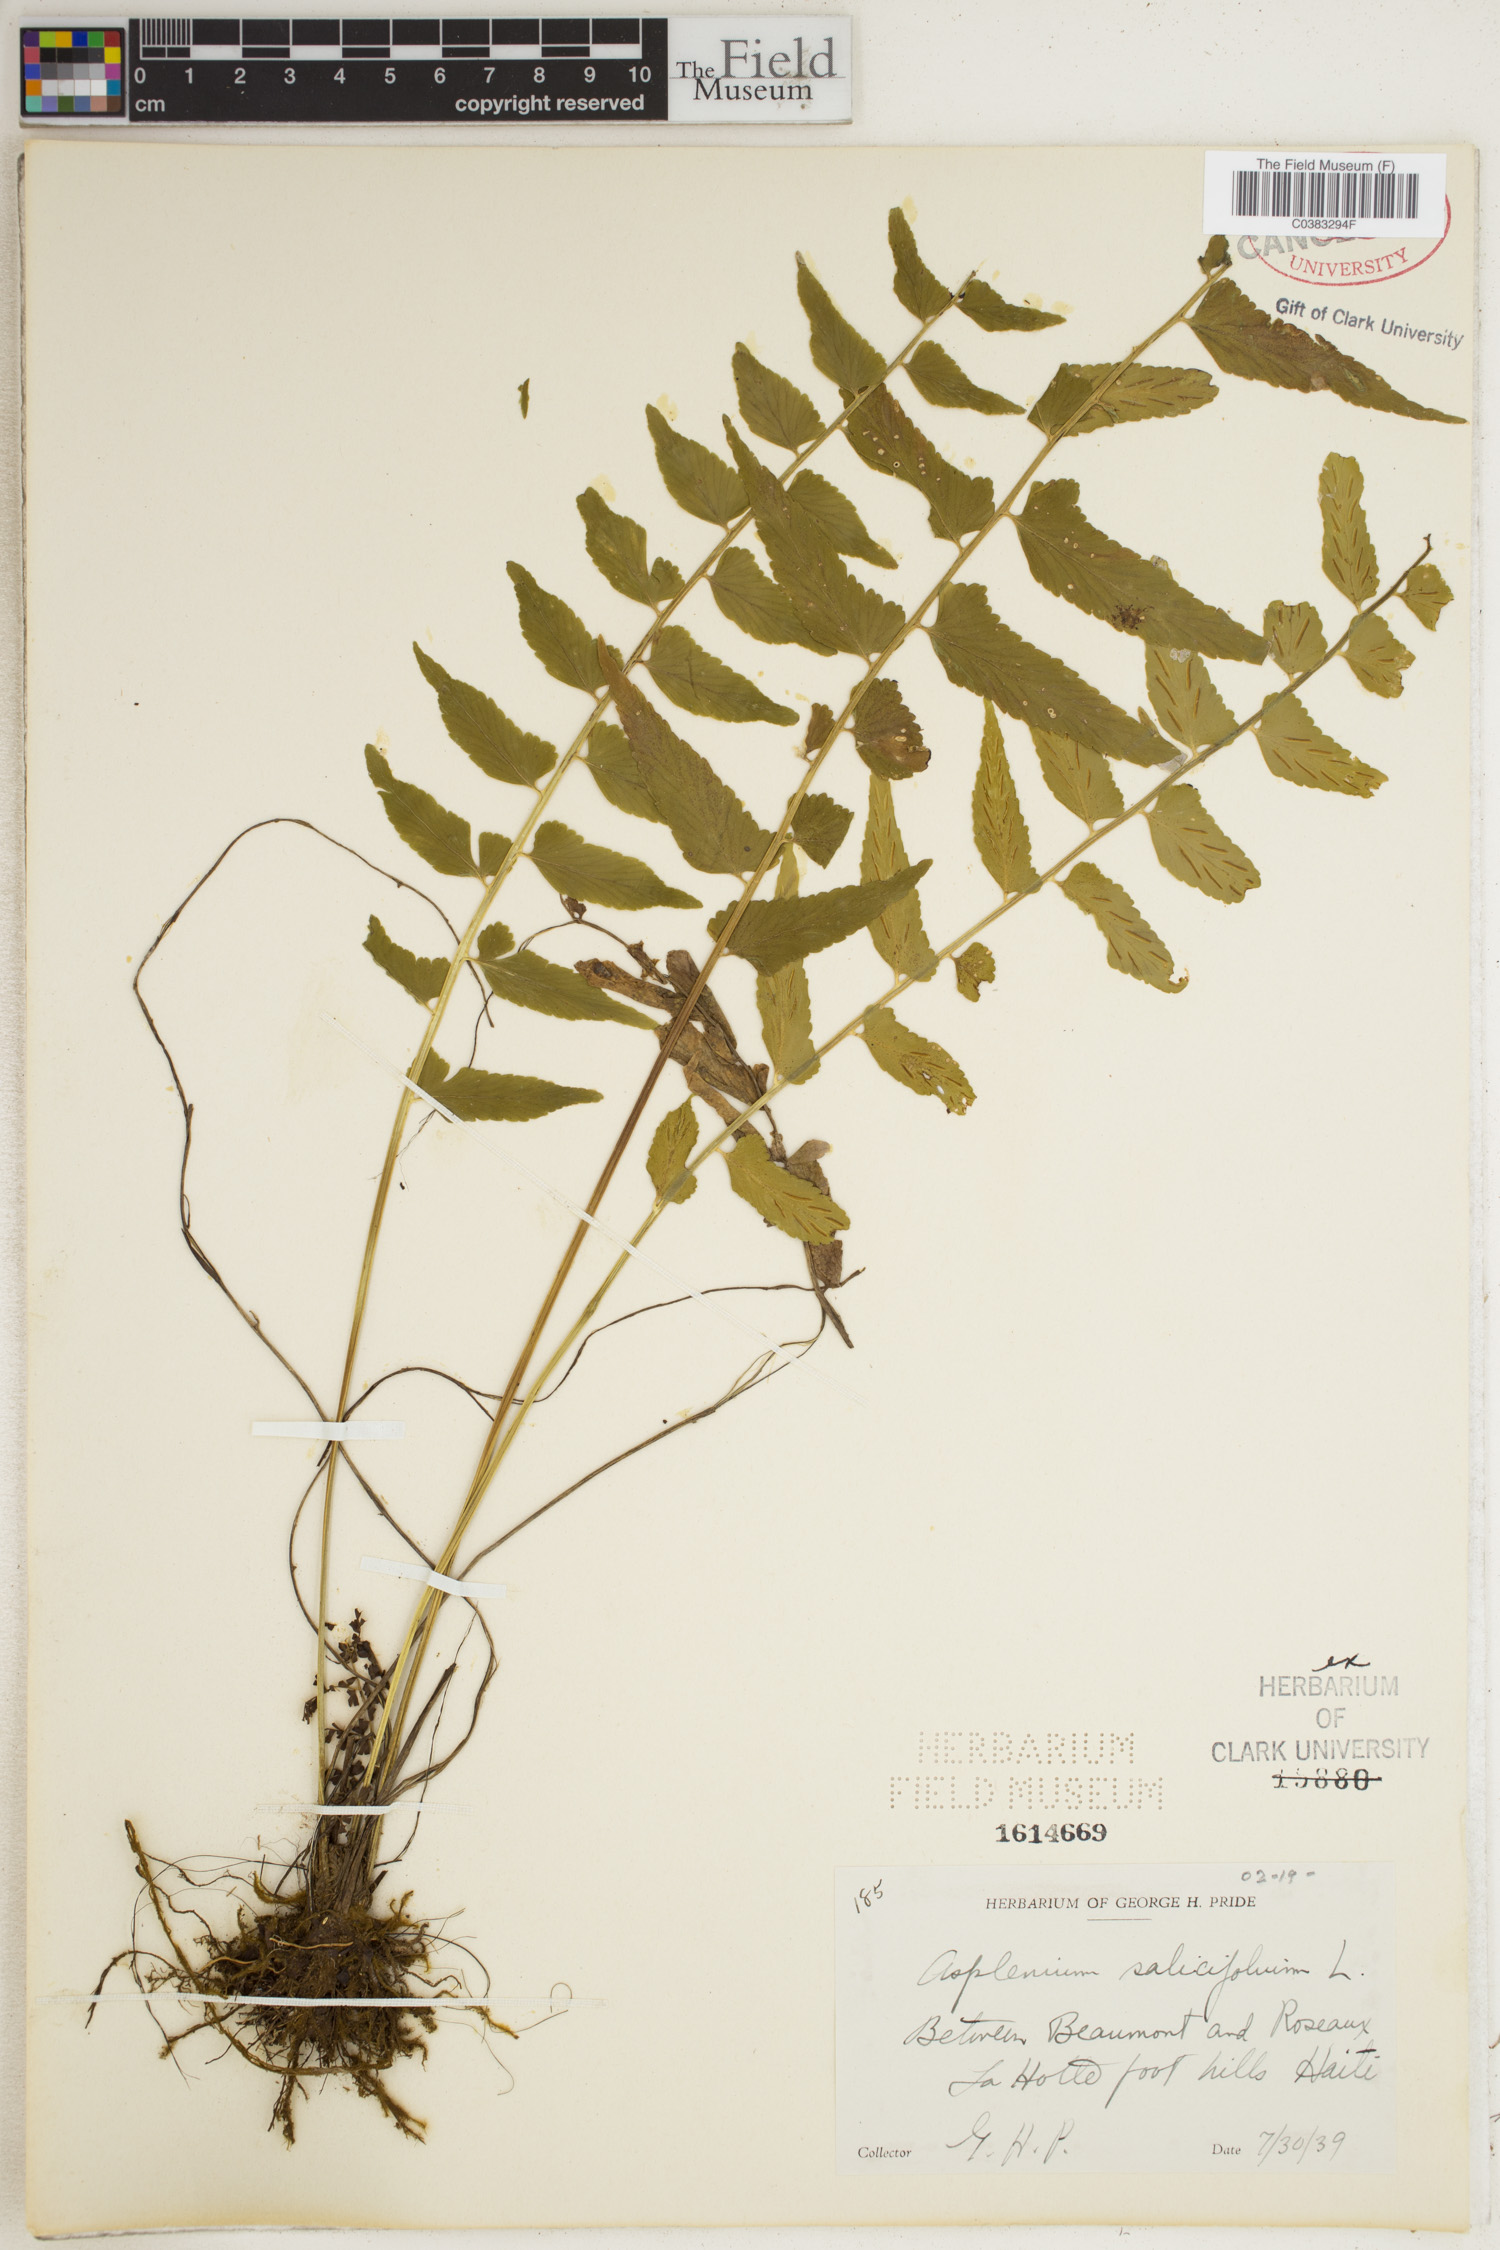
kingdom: Plantae
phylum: Tracheophyta
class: Polypodiopsida
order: Polypodiales
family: Aspleniaceae
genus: Asplenium
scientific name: Asplenium salicifolium
